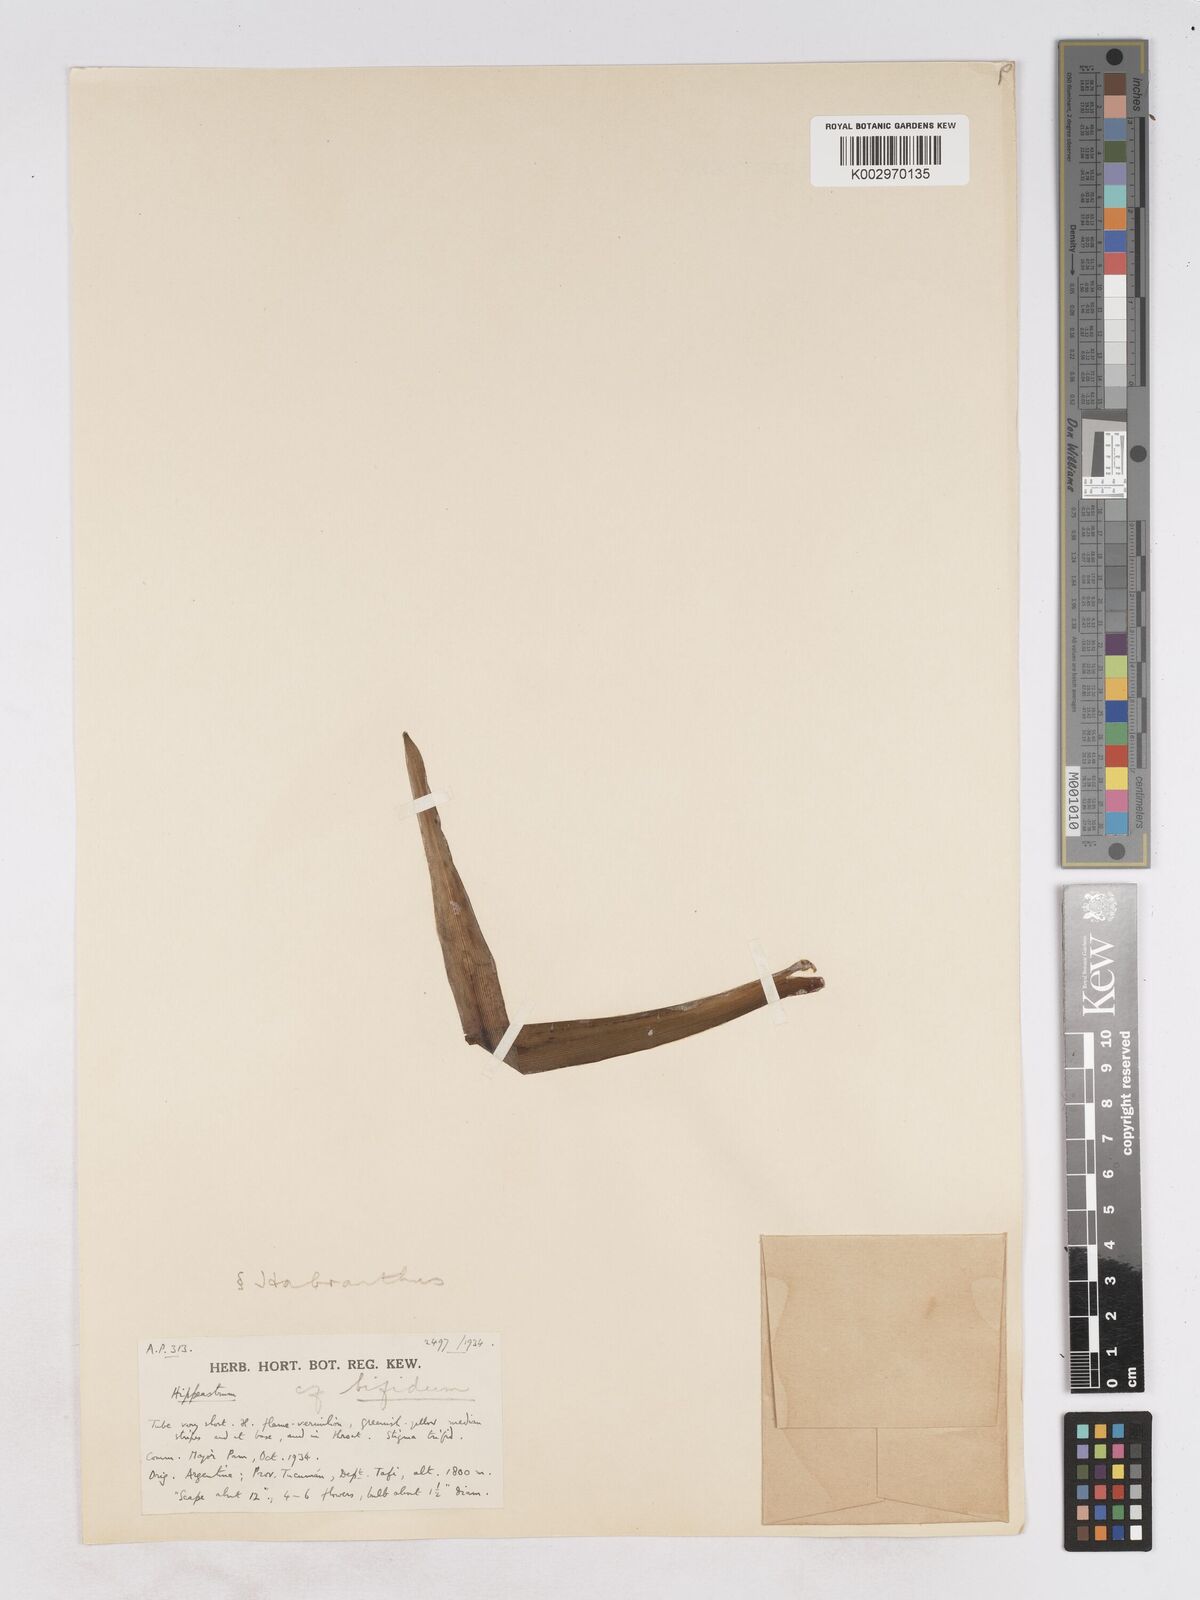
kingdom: Plantae
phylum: Tracheophyta
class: Liliopsida
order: Asparagales
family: Amaryllidaceae
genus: Zephyranthes
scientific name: Zephyranthes bifida
